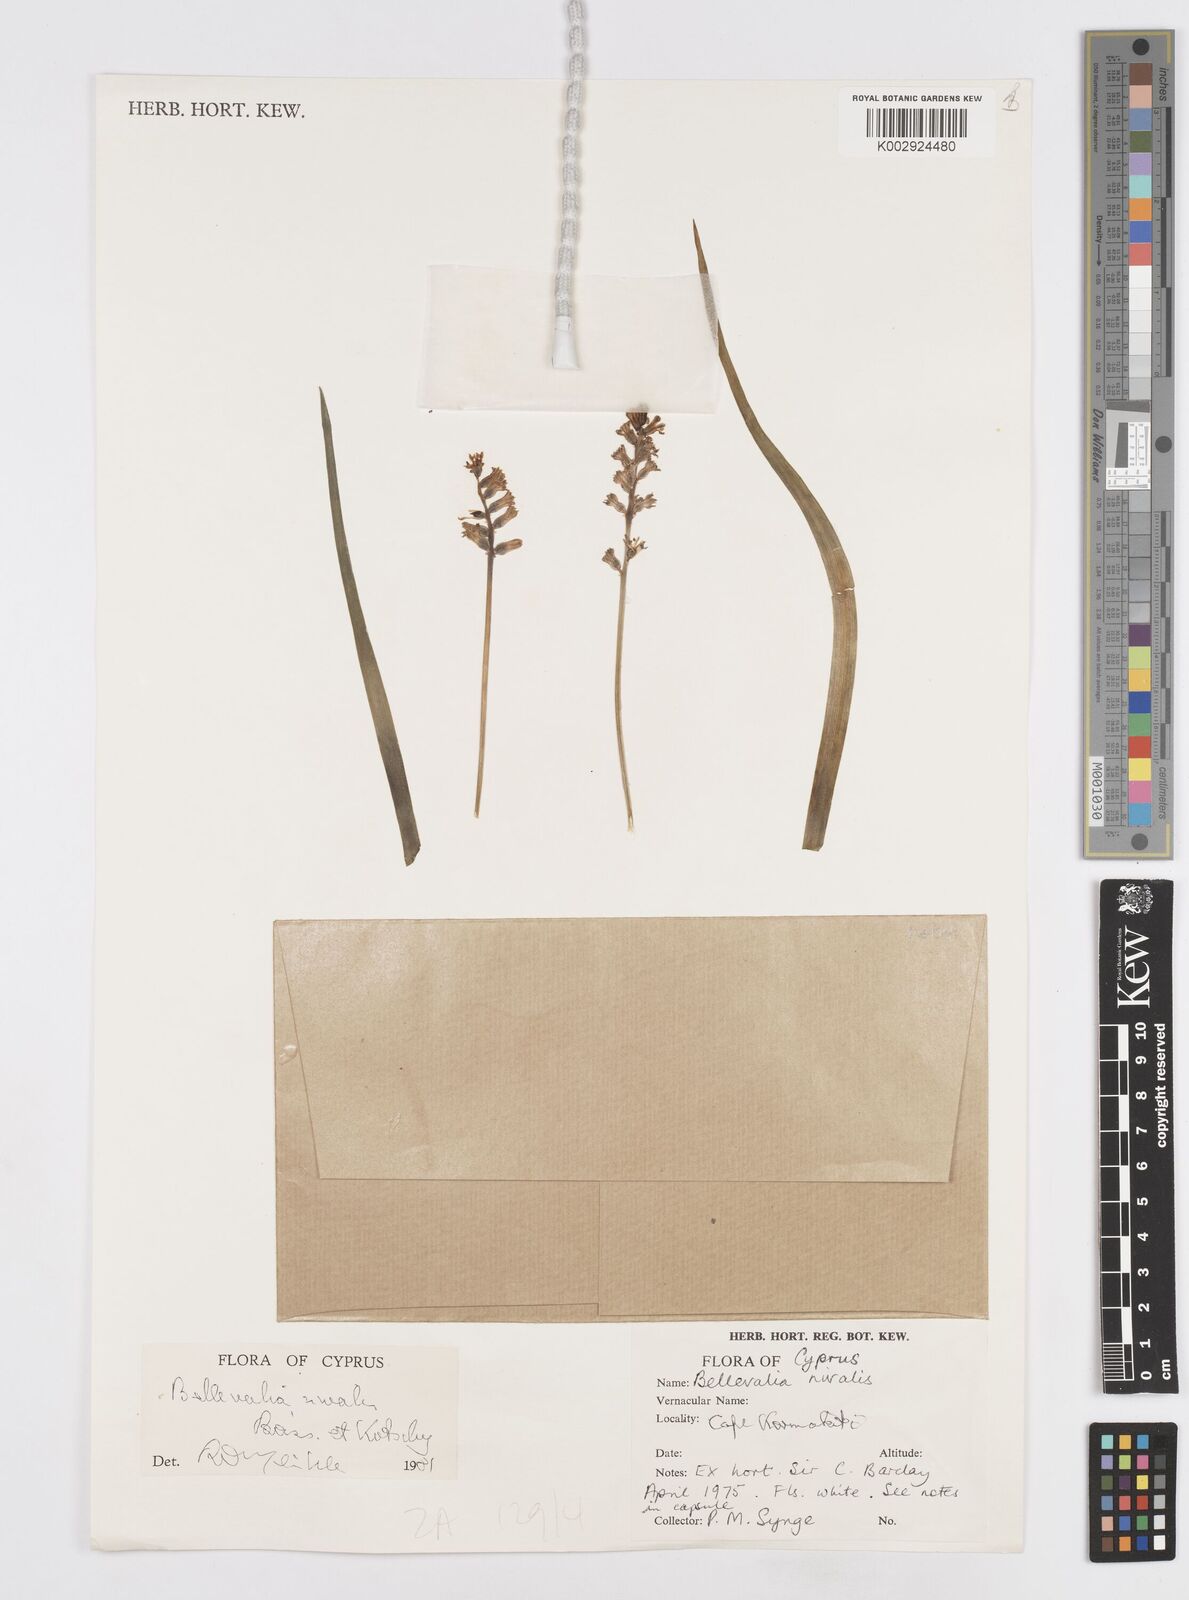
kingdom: Plantae
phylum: Tracheophyta
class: Liliopsida
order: Asparagales
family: Asparagaceae
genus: Bellevalia
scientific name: Bellevalia nivalis
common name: Snow bellevalia
